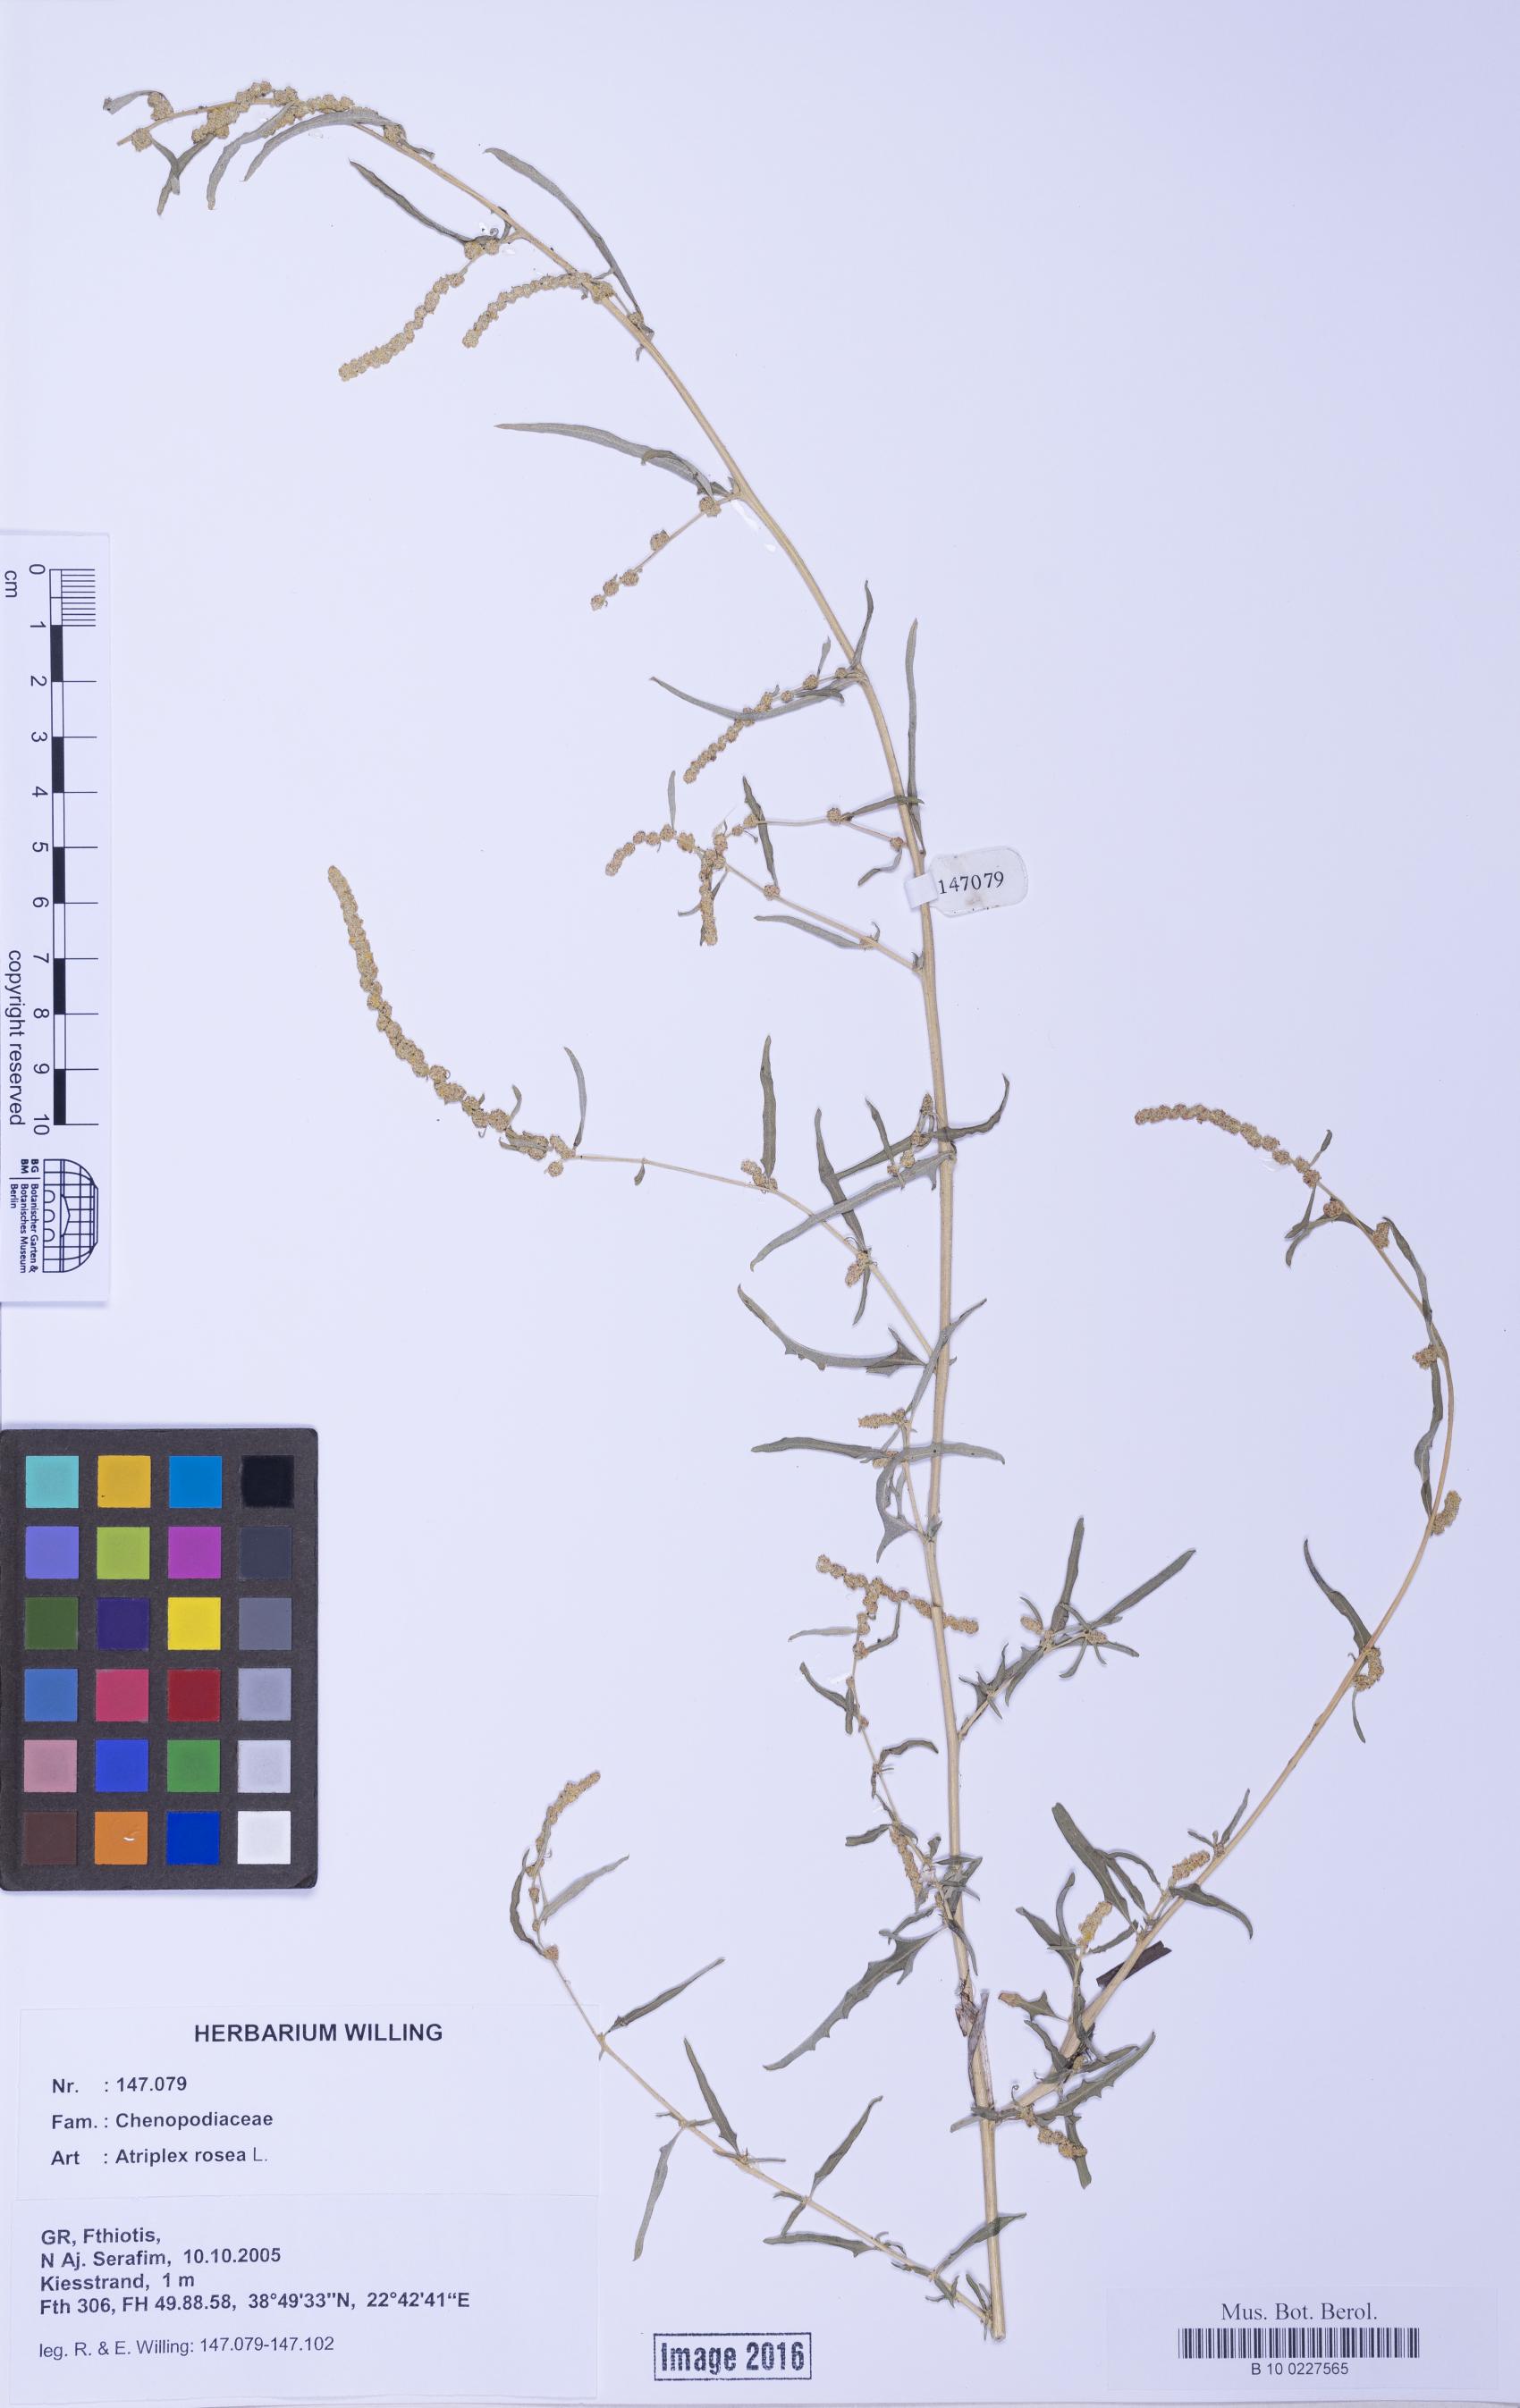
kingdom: Plantae
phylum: Tracheophyta
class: Magnoliopsida
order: Caryophyllales
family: Amaranthaceae
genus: Atriplex
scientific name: Atriplex tatarica
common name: Tatarian orache
